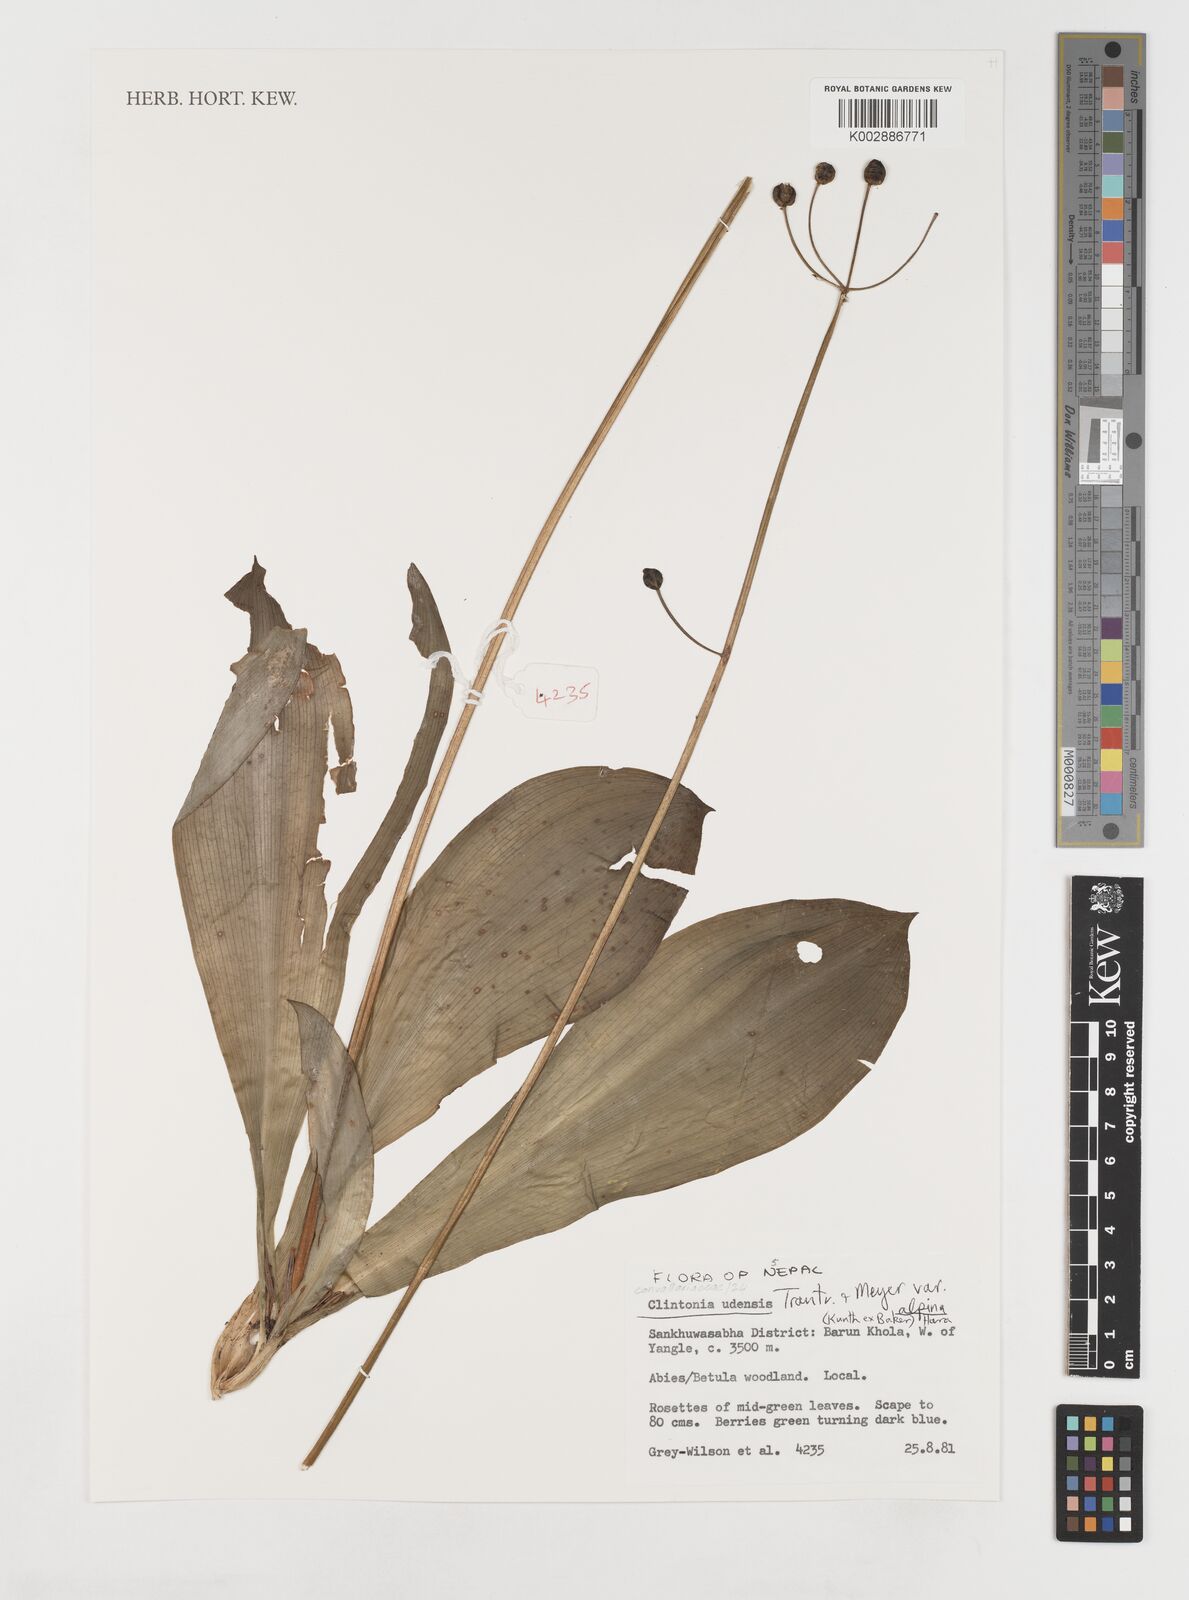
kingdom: Plantae
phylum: Tracheophyta
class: Liliopsida
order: Liliales
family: Liliaceae
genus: Clintonia
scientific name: Clintonia udensis
